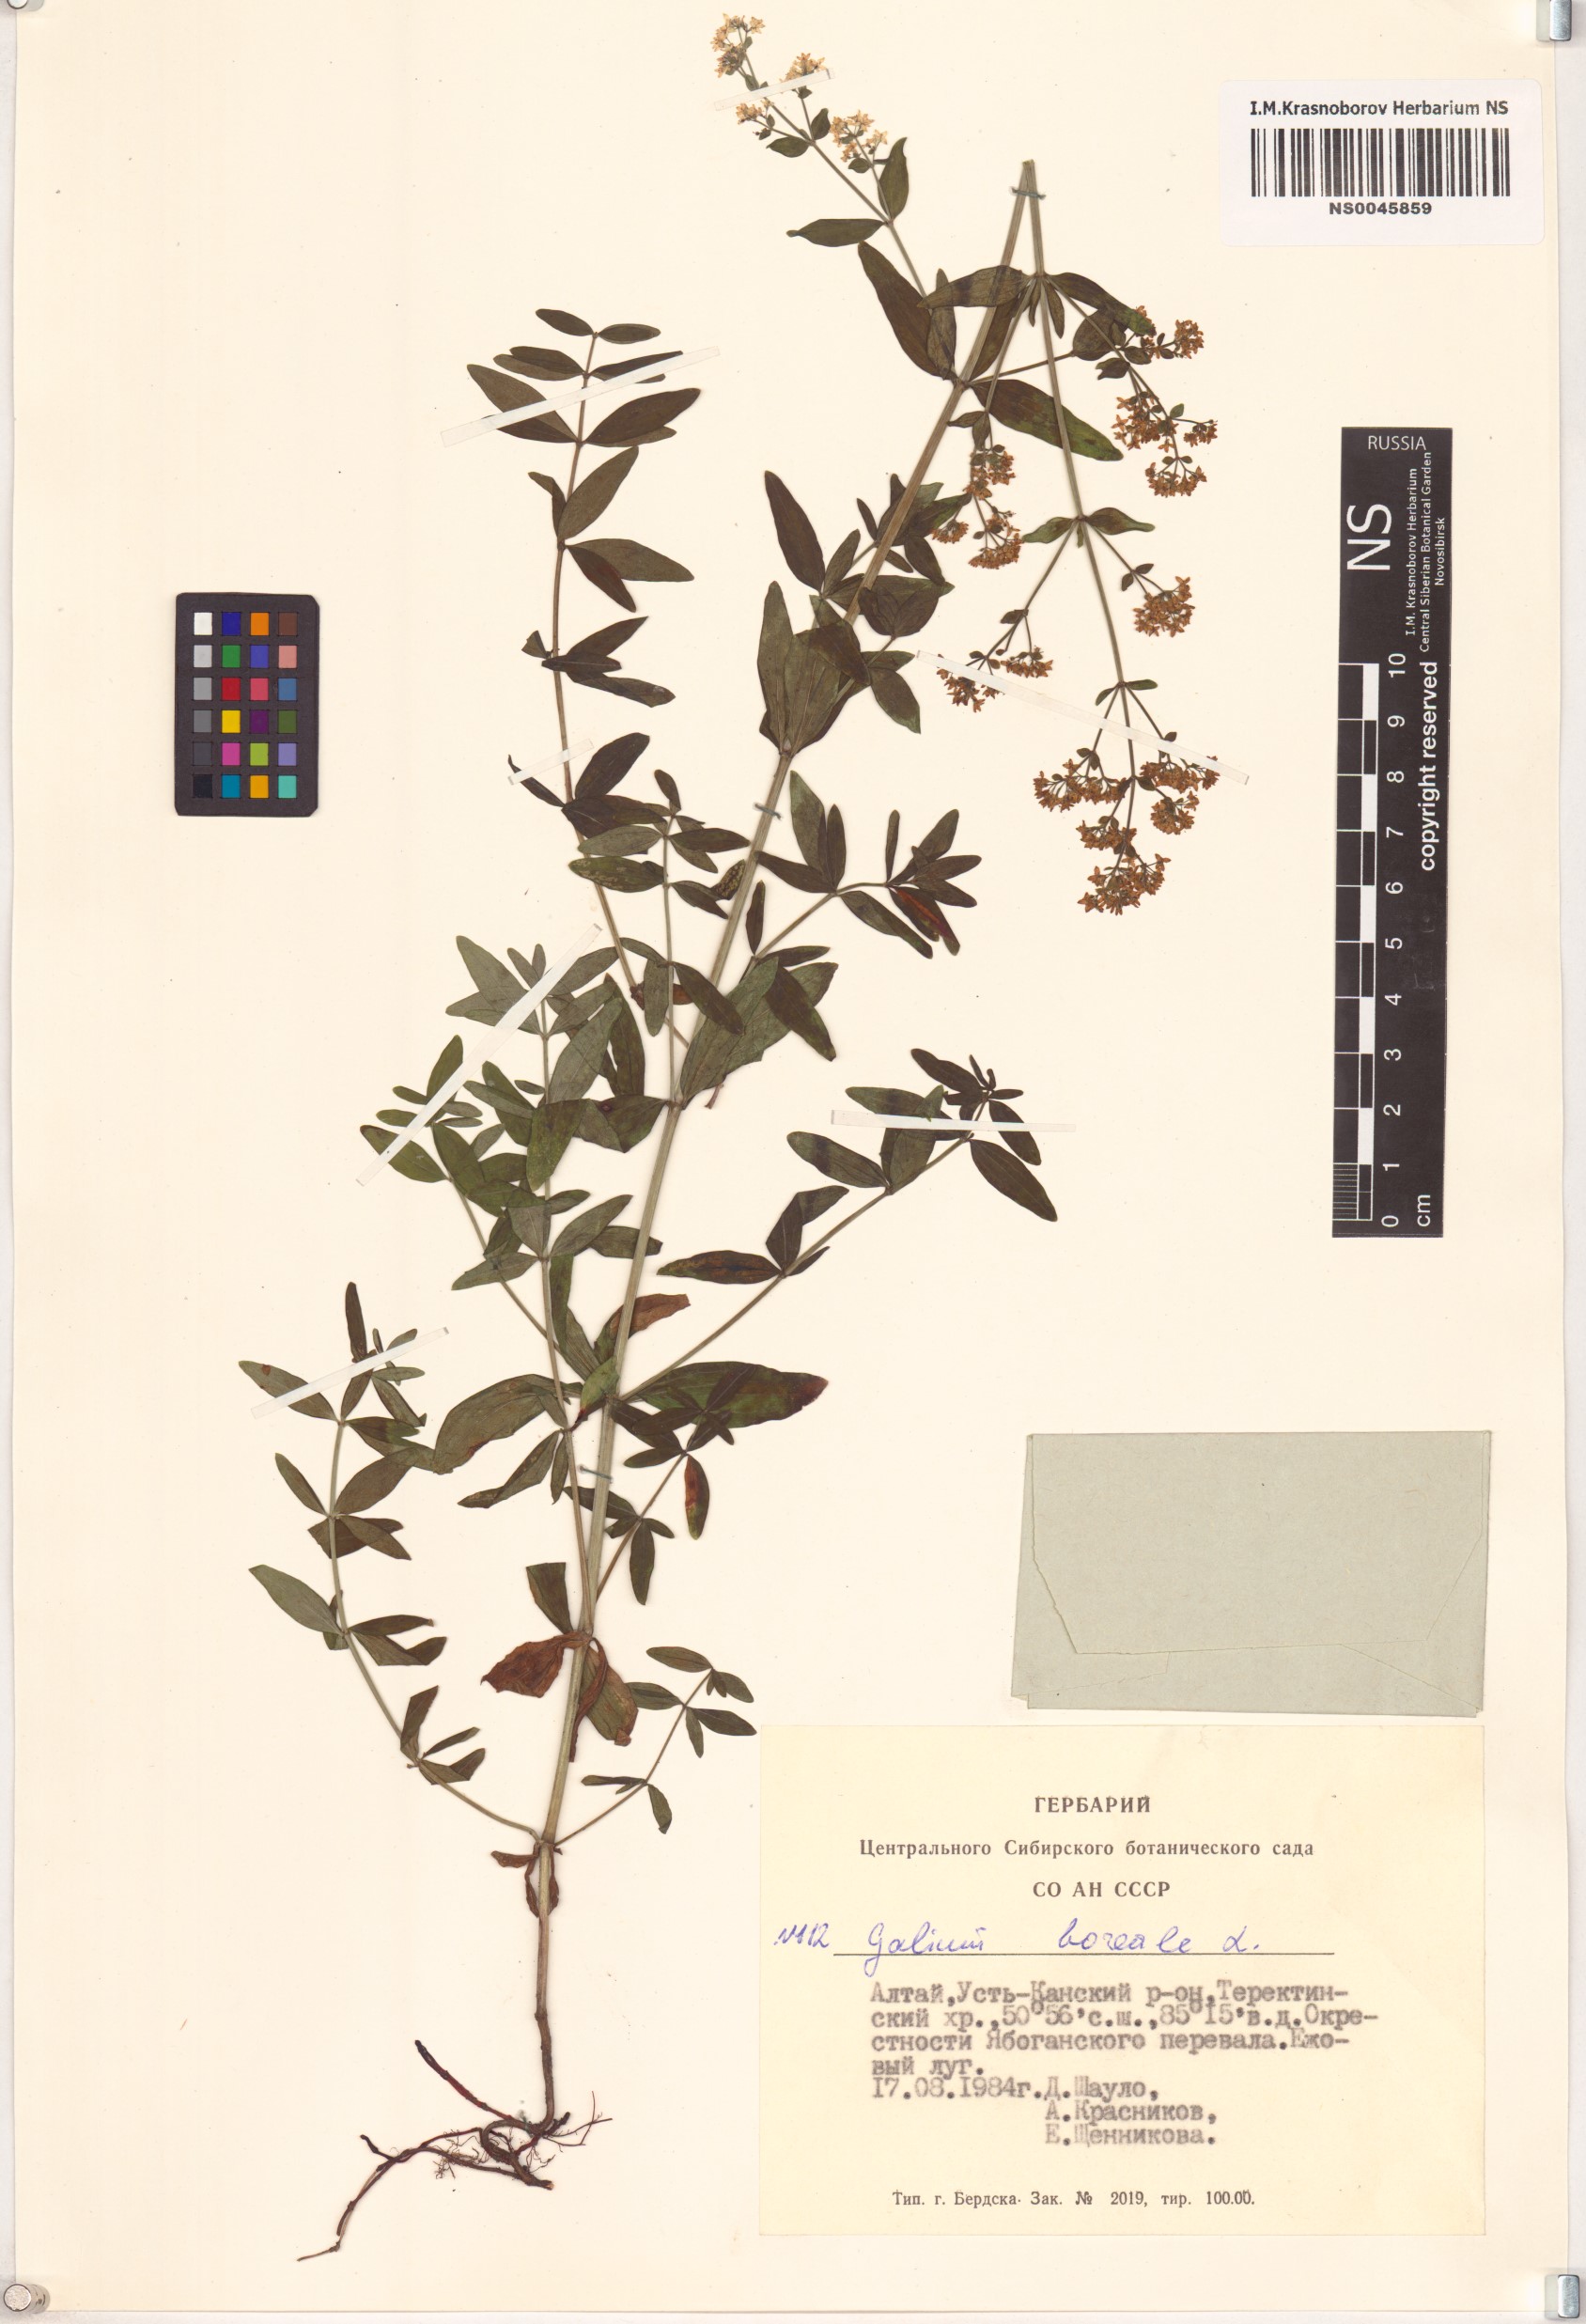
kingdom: Plantae
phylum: Tracheophyta
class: Magnoliopsida
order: Gentianales
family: Rubiaceae
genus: Galium
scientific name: Galium boreale
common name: Northern bedstraw
